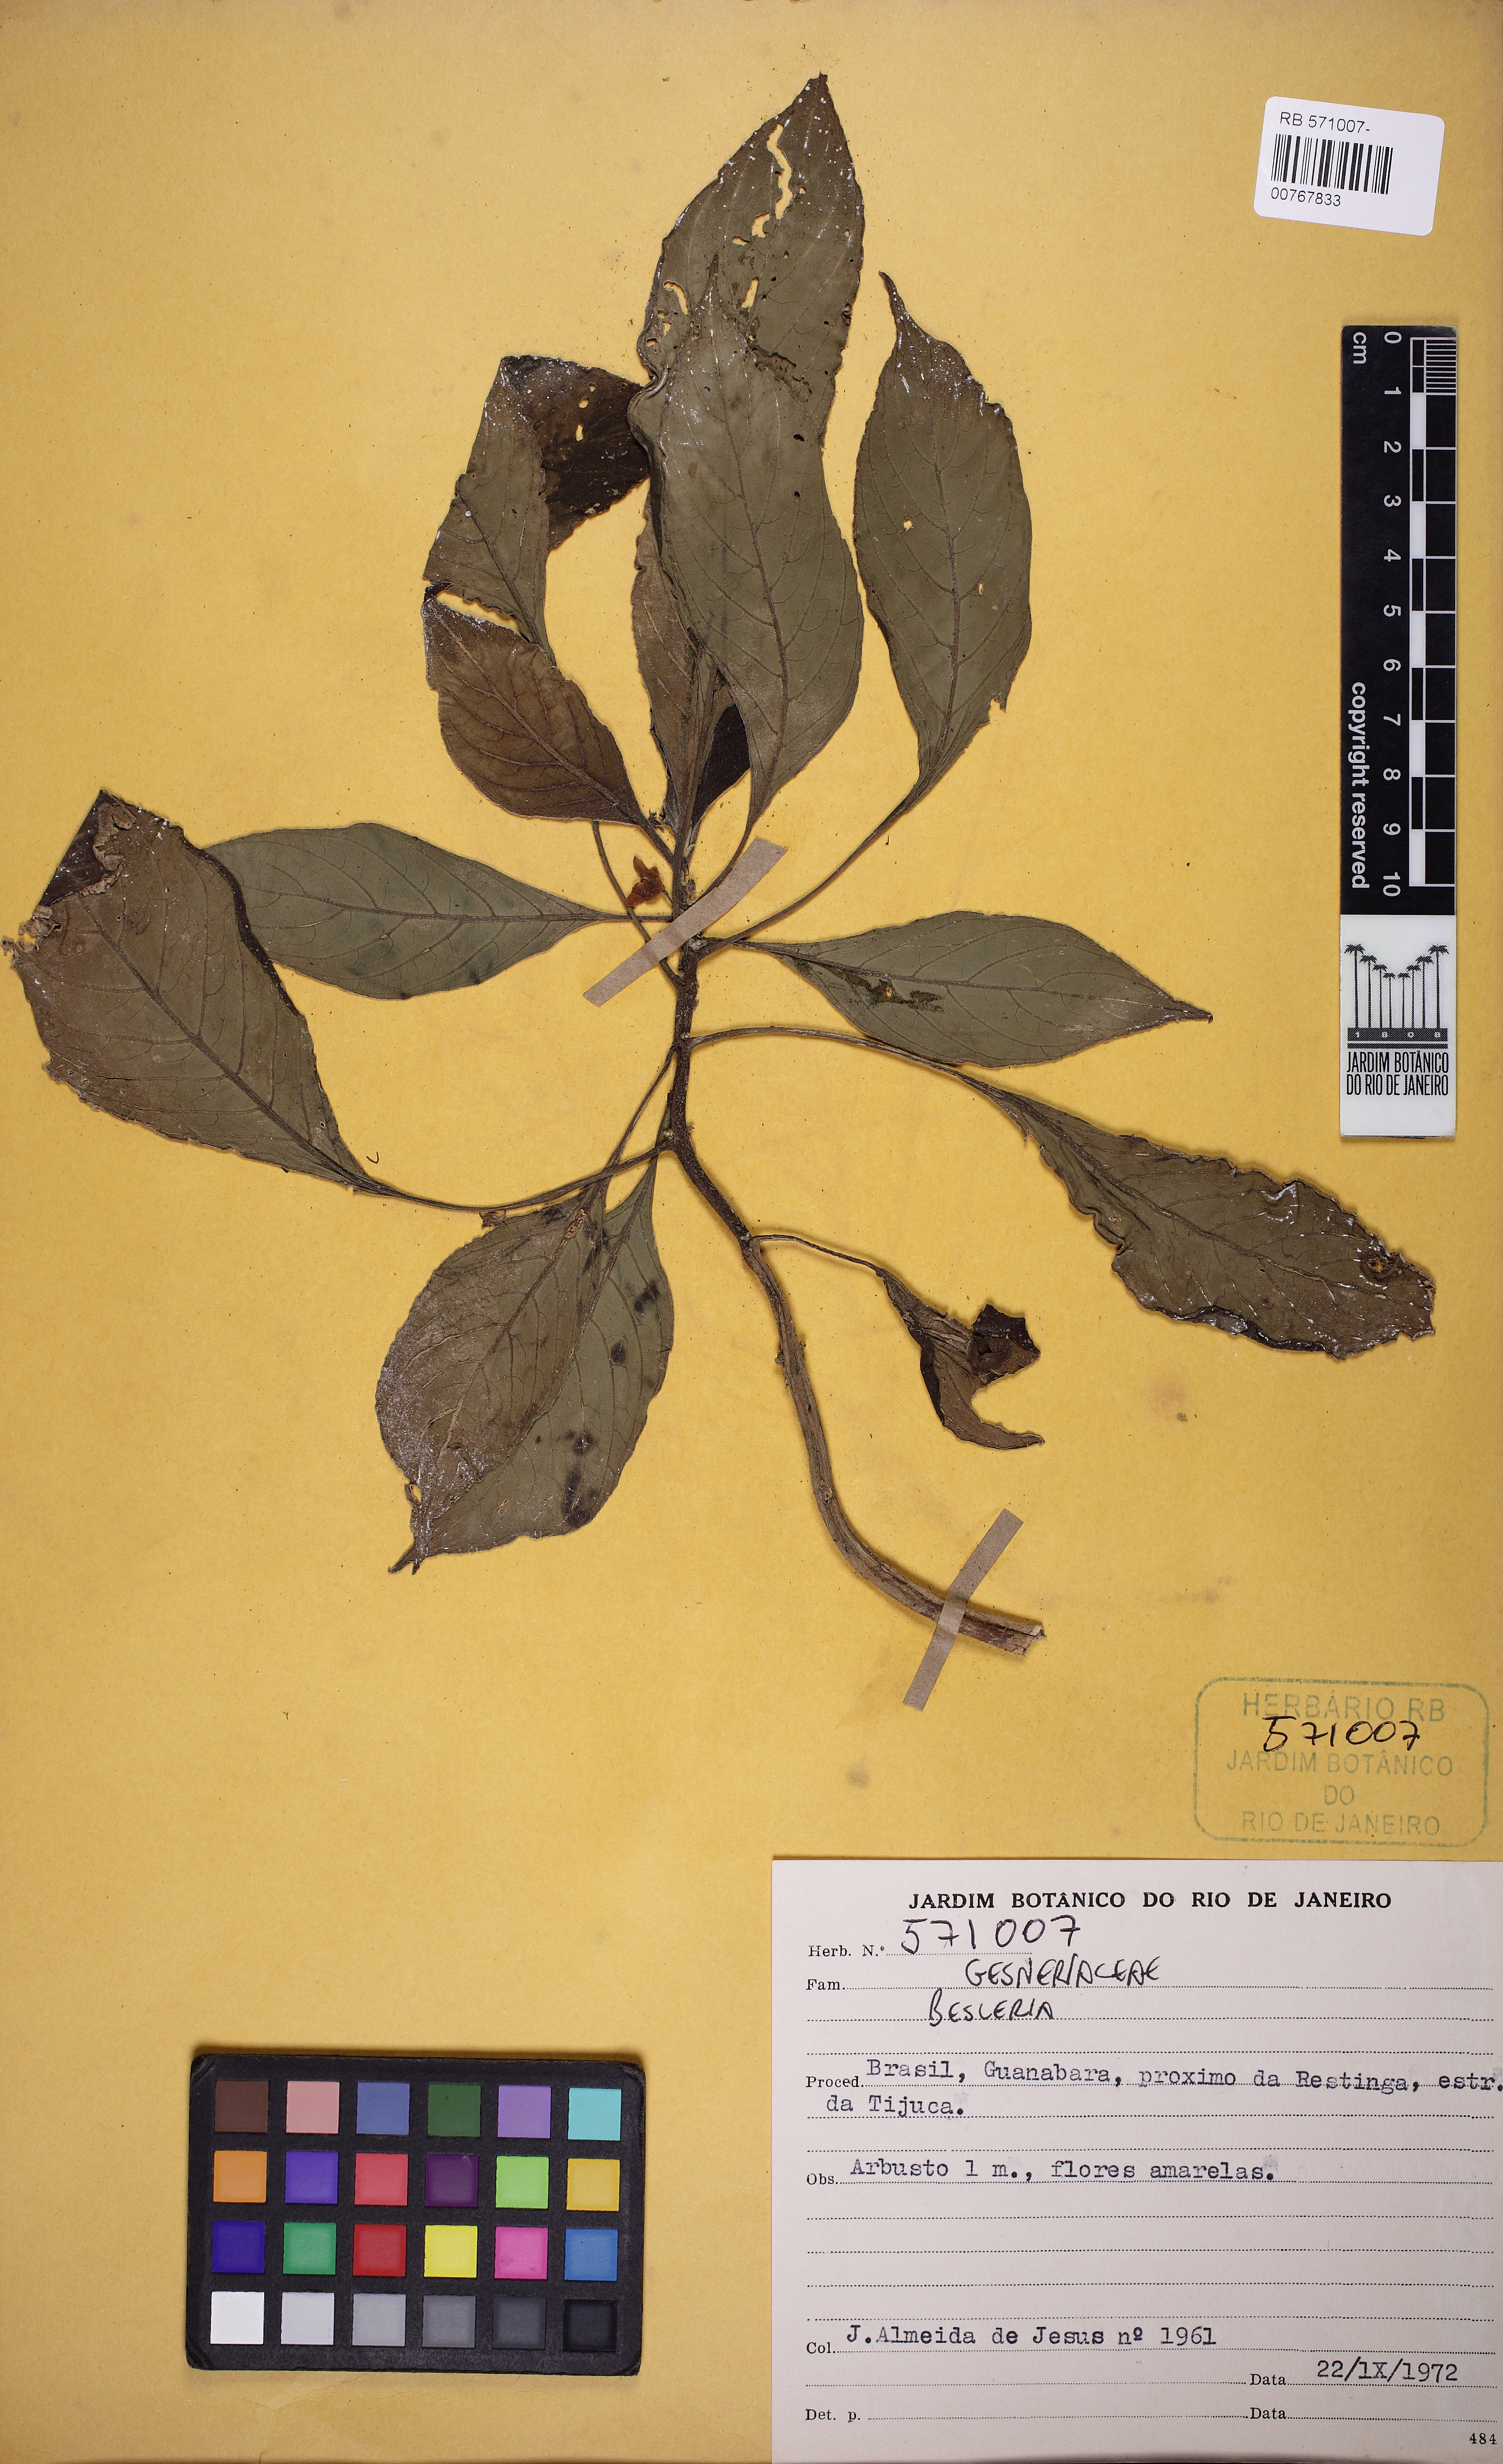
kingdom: Plantae
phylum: Tracheophyta
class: Magnoliopsida
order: Lamiales
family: Gesneriaceae
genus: Besleria
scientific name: Besleria
